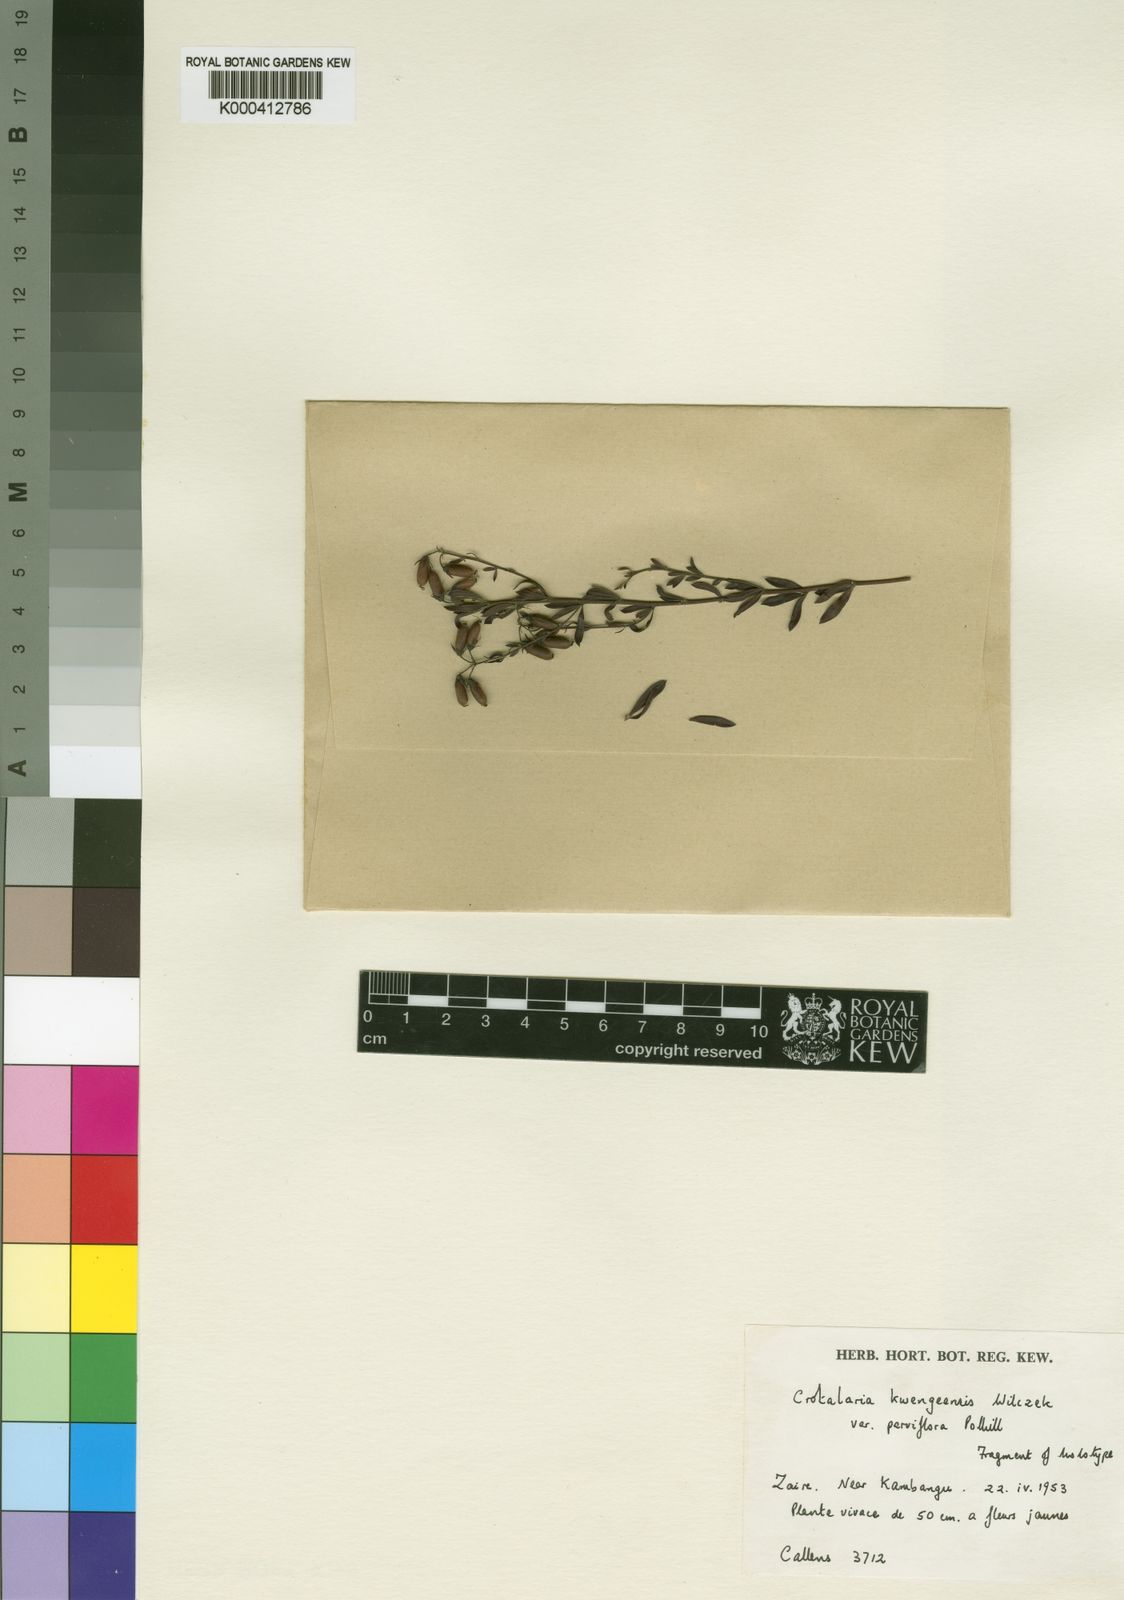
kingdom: Plantae
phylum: Tracheophyta
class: Magnoliopsida
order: Fabales
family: Fabaceae
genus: Crotalaria
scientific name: Crotalaria kwengeensis
